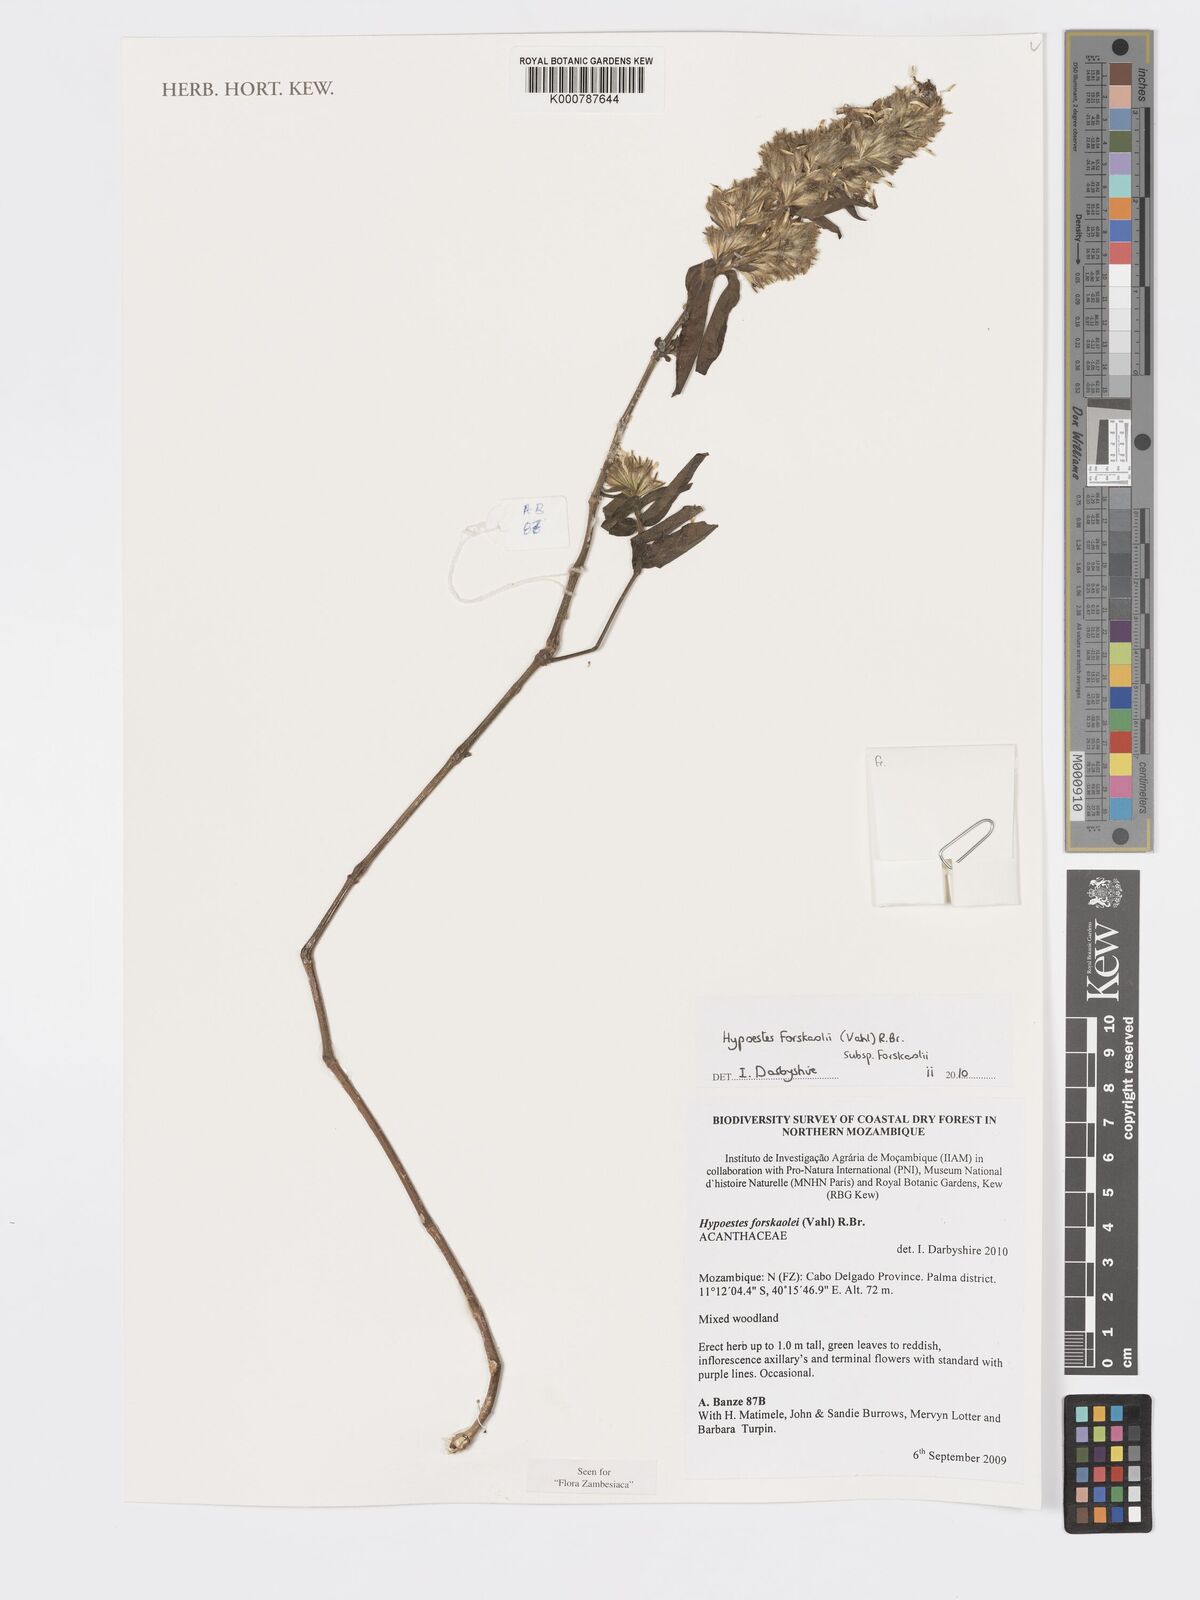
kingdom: Plantae
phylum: Tracheophyta
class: Magnoliopsida
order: Lamiales
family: Acanthaceae
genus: Hypoestes
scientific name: Hypoestes forskaolii
